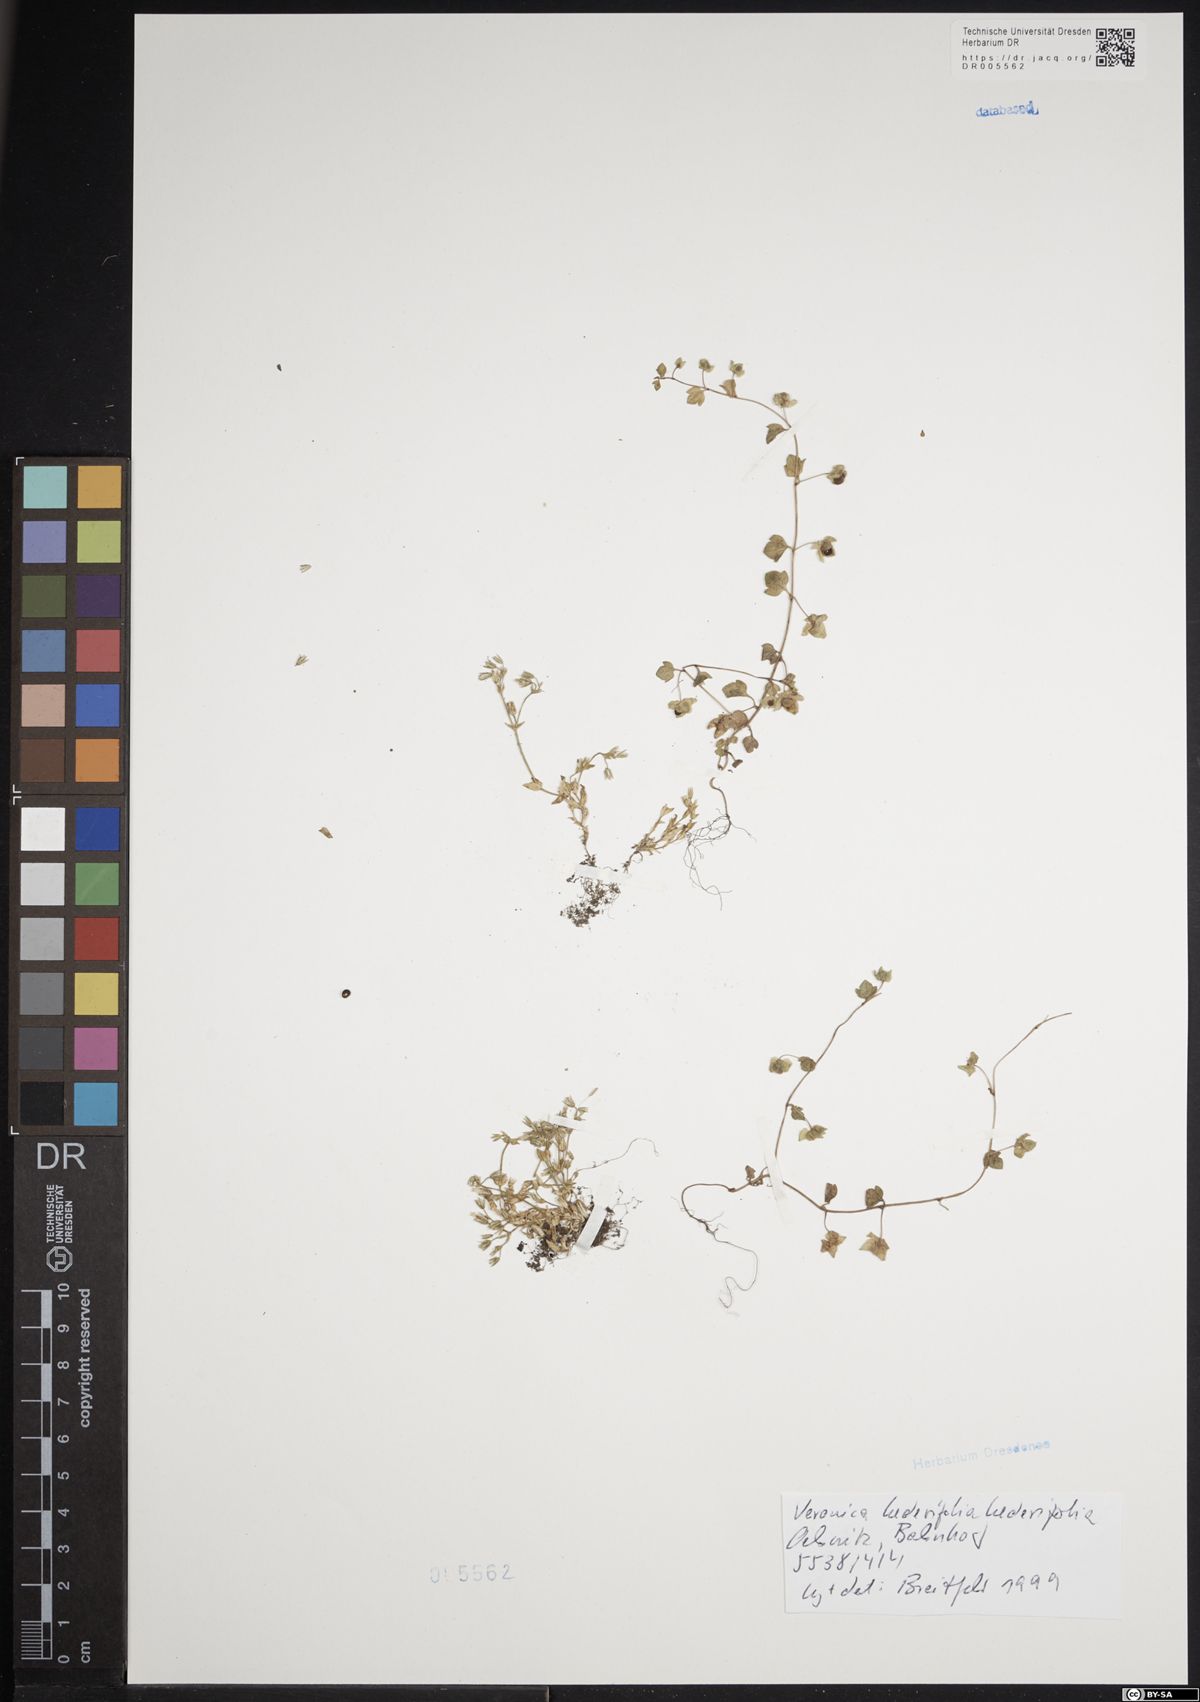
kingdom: Plantae
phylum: Tracheophyta
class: Magnoliopsida
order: Lamiales
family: Plantaginaceae
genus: Veronica
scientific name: Veronica hederifolia
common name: Ivy-leaved speedwell
